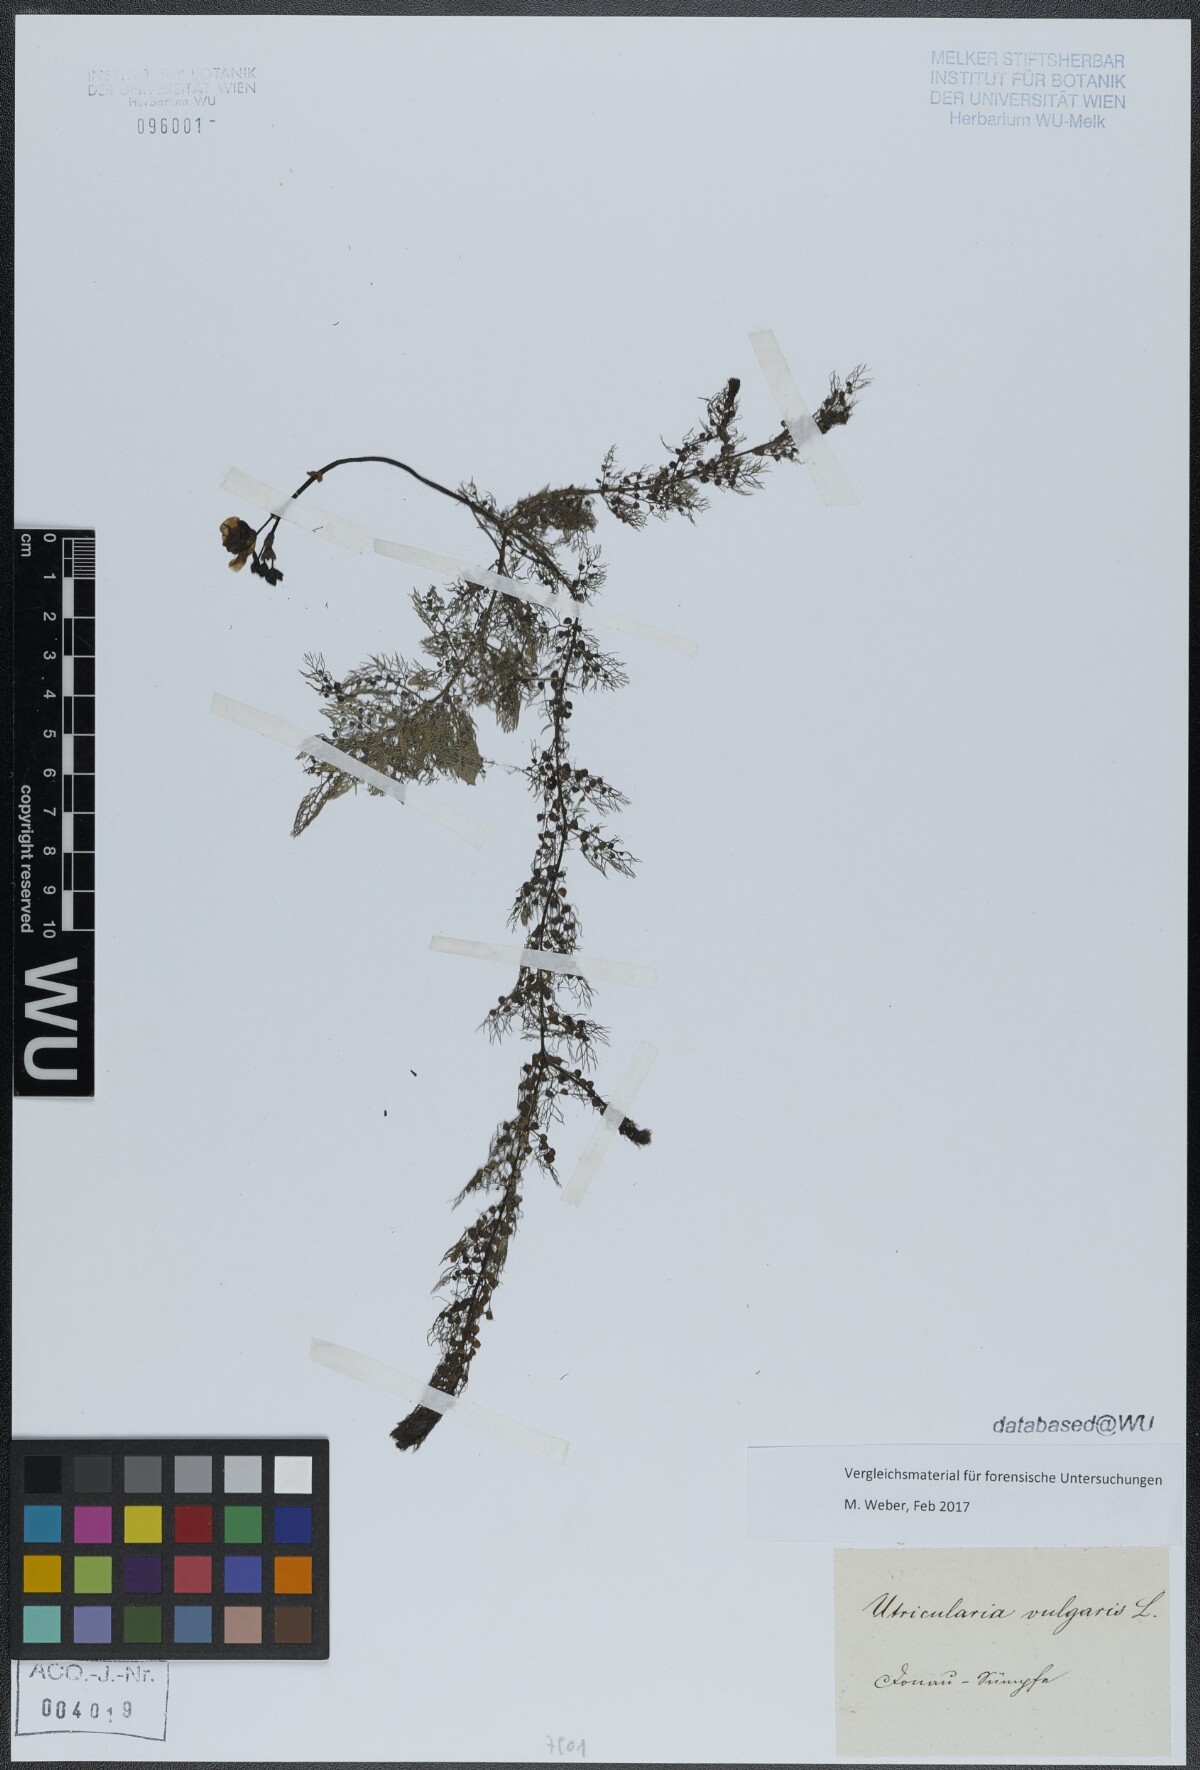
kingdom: Plantae
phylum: Tracheophyta
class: Magnoliopsida
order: Lamiales
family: Lentibulariaceae
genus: Utricularia
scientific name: Utricularia vulgaris
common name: Greater bladderwort
